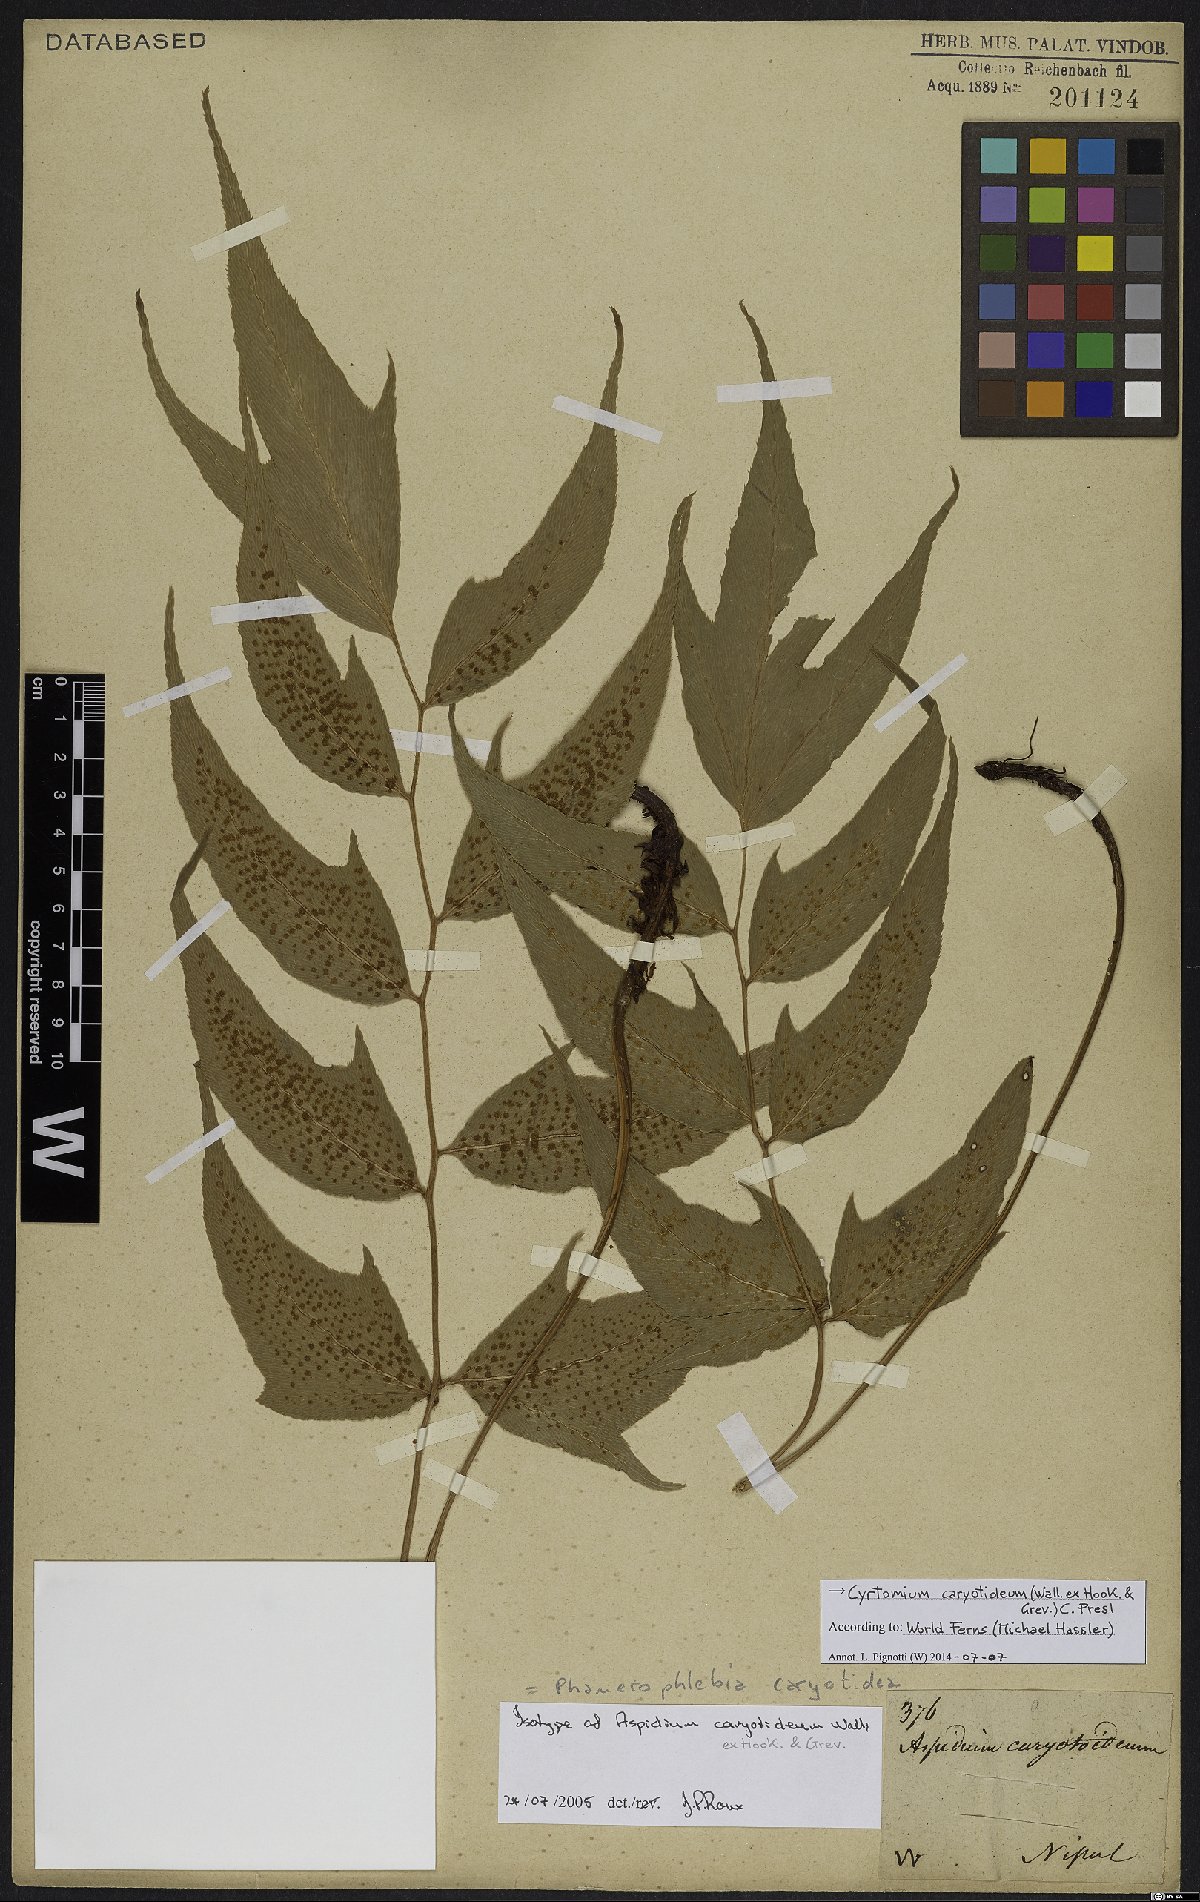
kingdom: Plantae
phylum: Tracheophyta
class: Polypodiopsida
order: Polypodiales
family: Dryopteridaceae
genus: Cyrtomium
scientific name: Cyrtomium caryotideum
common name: Asiatic holly fern
